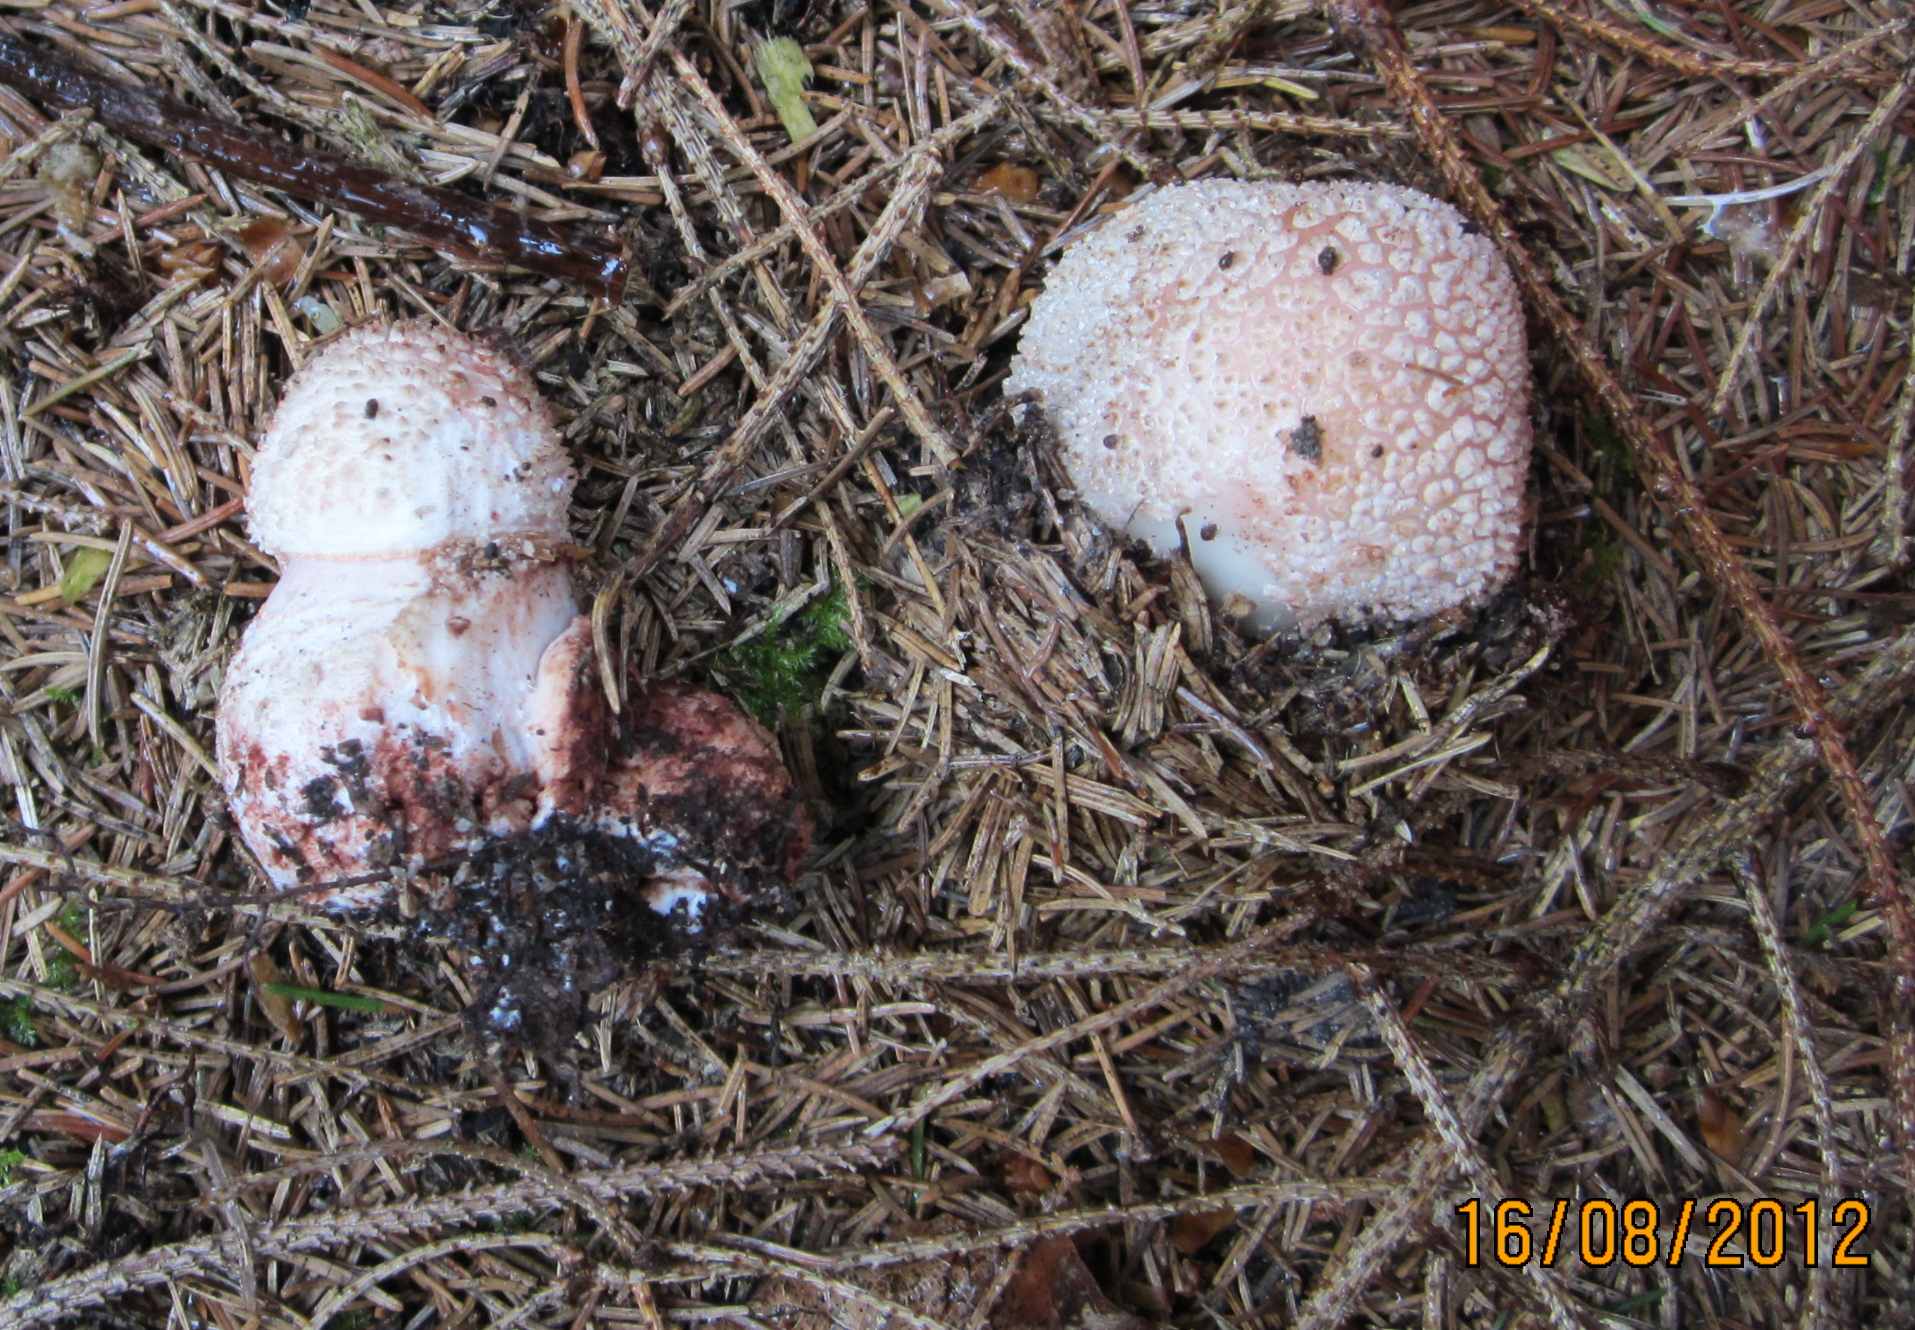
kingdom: Fungi
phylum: Basidiomycota
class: Agaricomycetes
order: Agaricales
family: Amanitaceae
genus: Amanita
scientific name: Amanita rubescens
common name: rødmende fluesvamp
